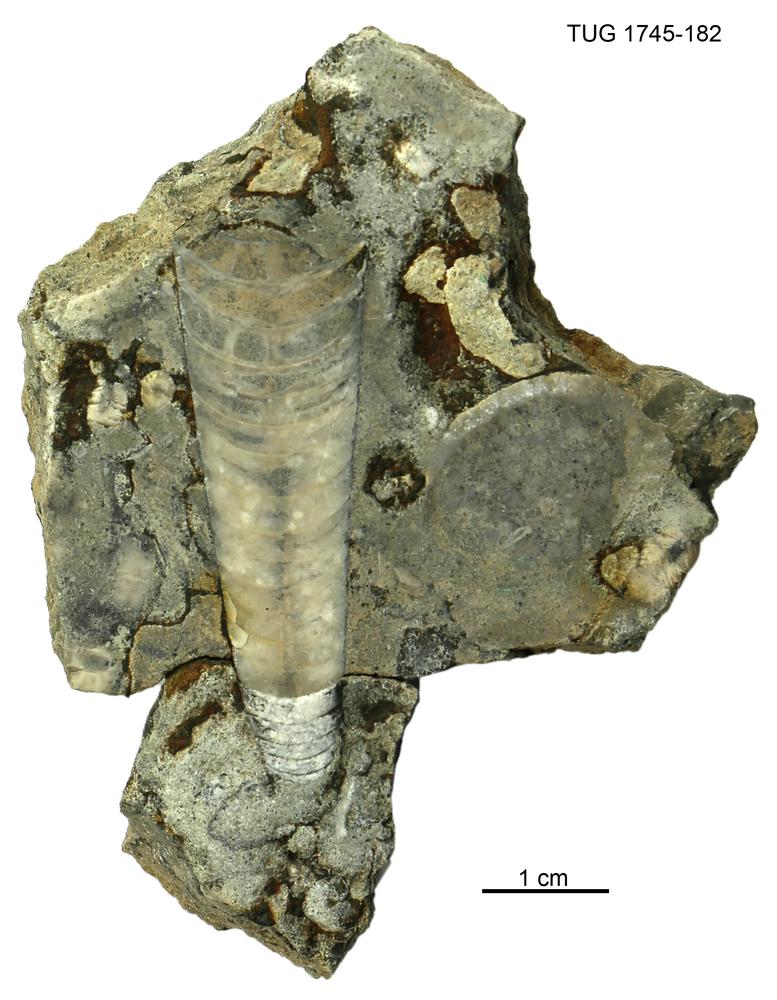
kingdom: Animalia
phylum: Mollusca
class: Cephalopoda
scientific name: Cephalopoda
